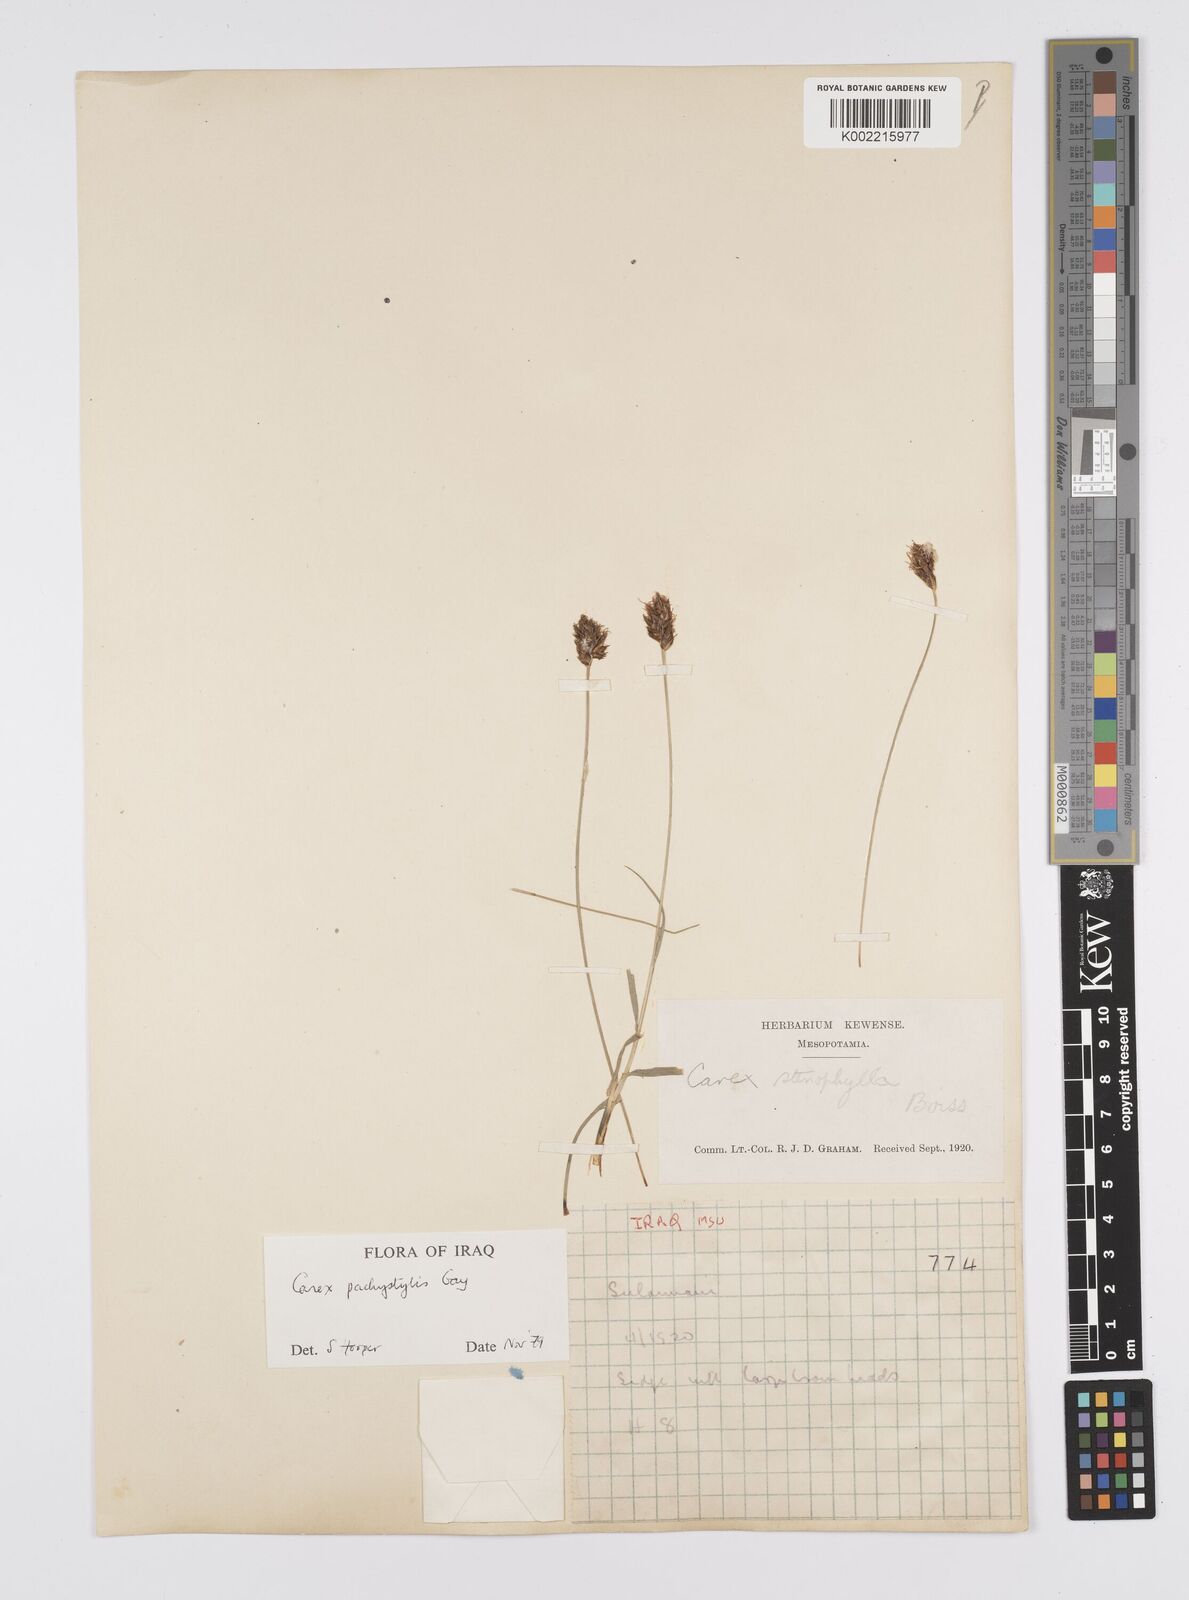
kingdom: Plantae
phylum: Tracheophyta
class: Liliopsida
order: Poales
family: Cyperaceae
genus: Carex
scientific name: Carex pachystylis
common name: Thick-stem sedge
